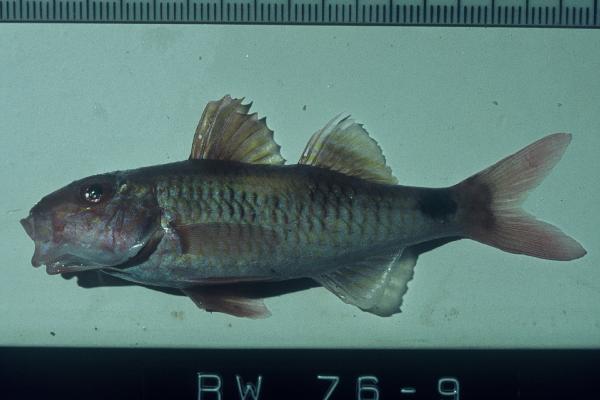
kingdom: Animalia
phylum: Chordata
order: Perciformes
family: Mullidae
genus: Parupeneus
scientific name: Parupeneus rubescens
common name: Rosy goatfish
